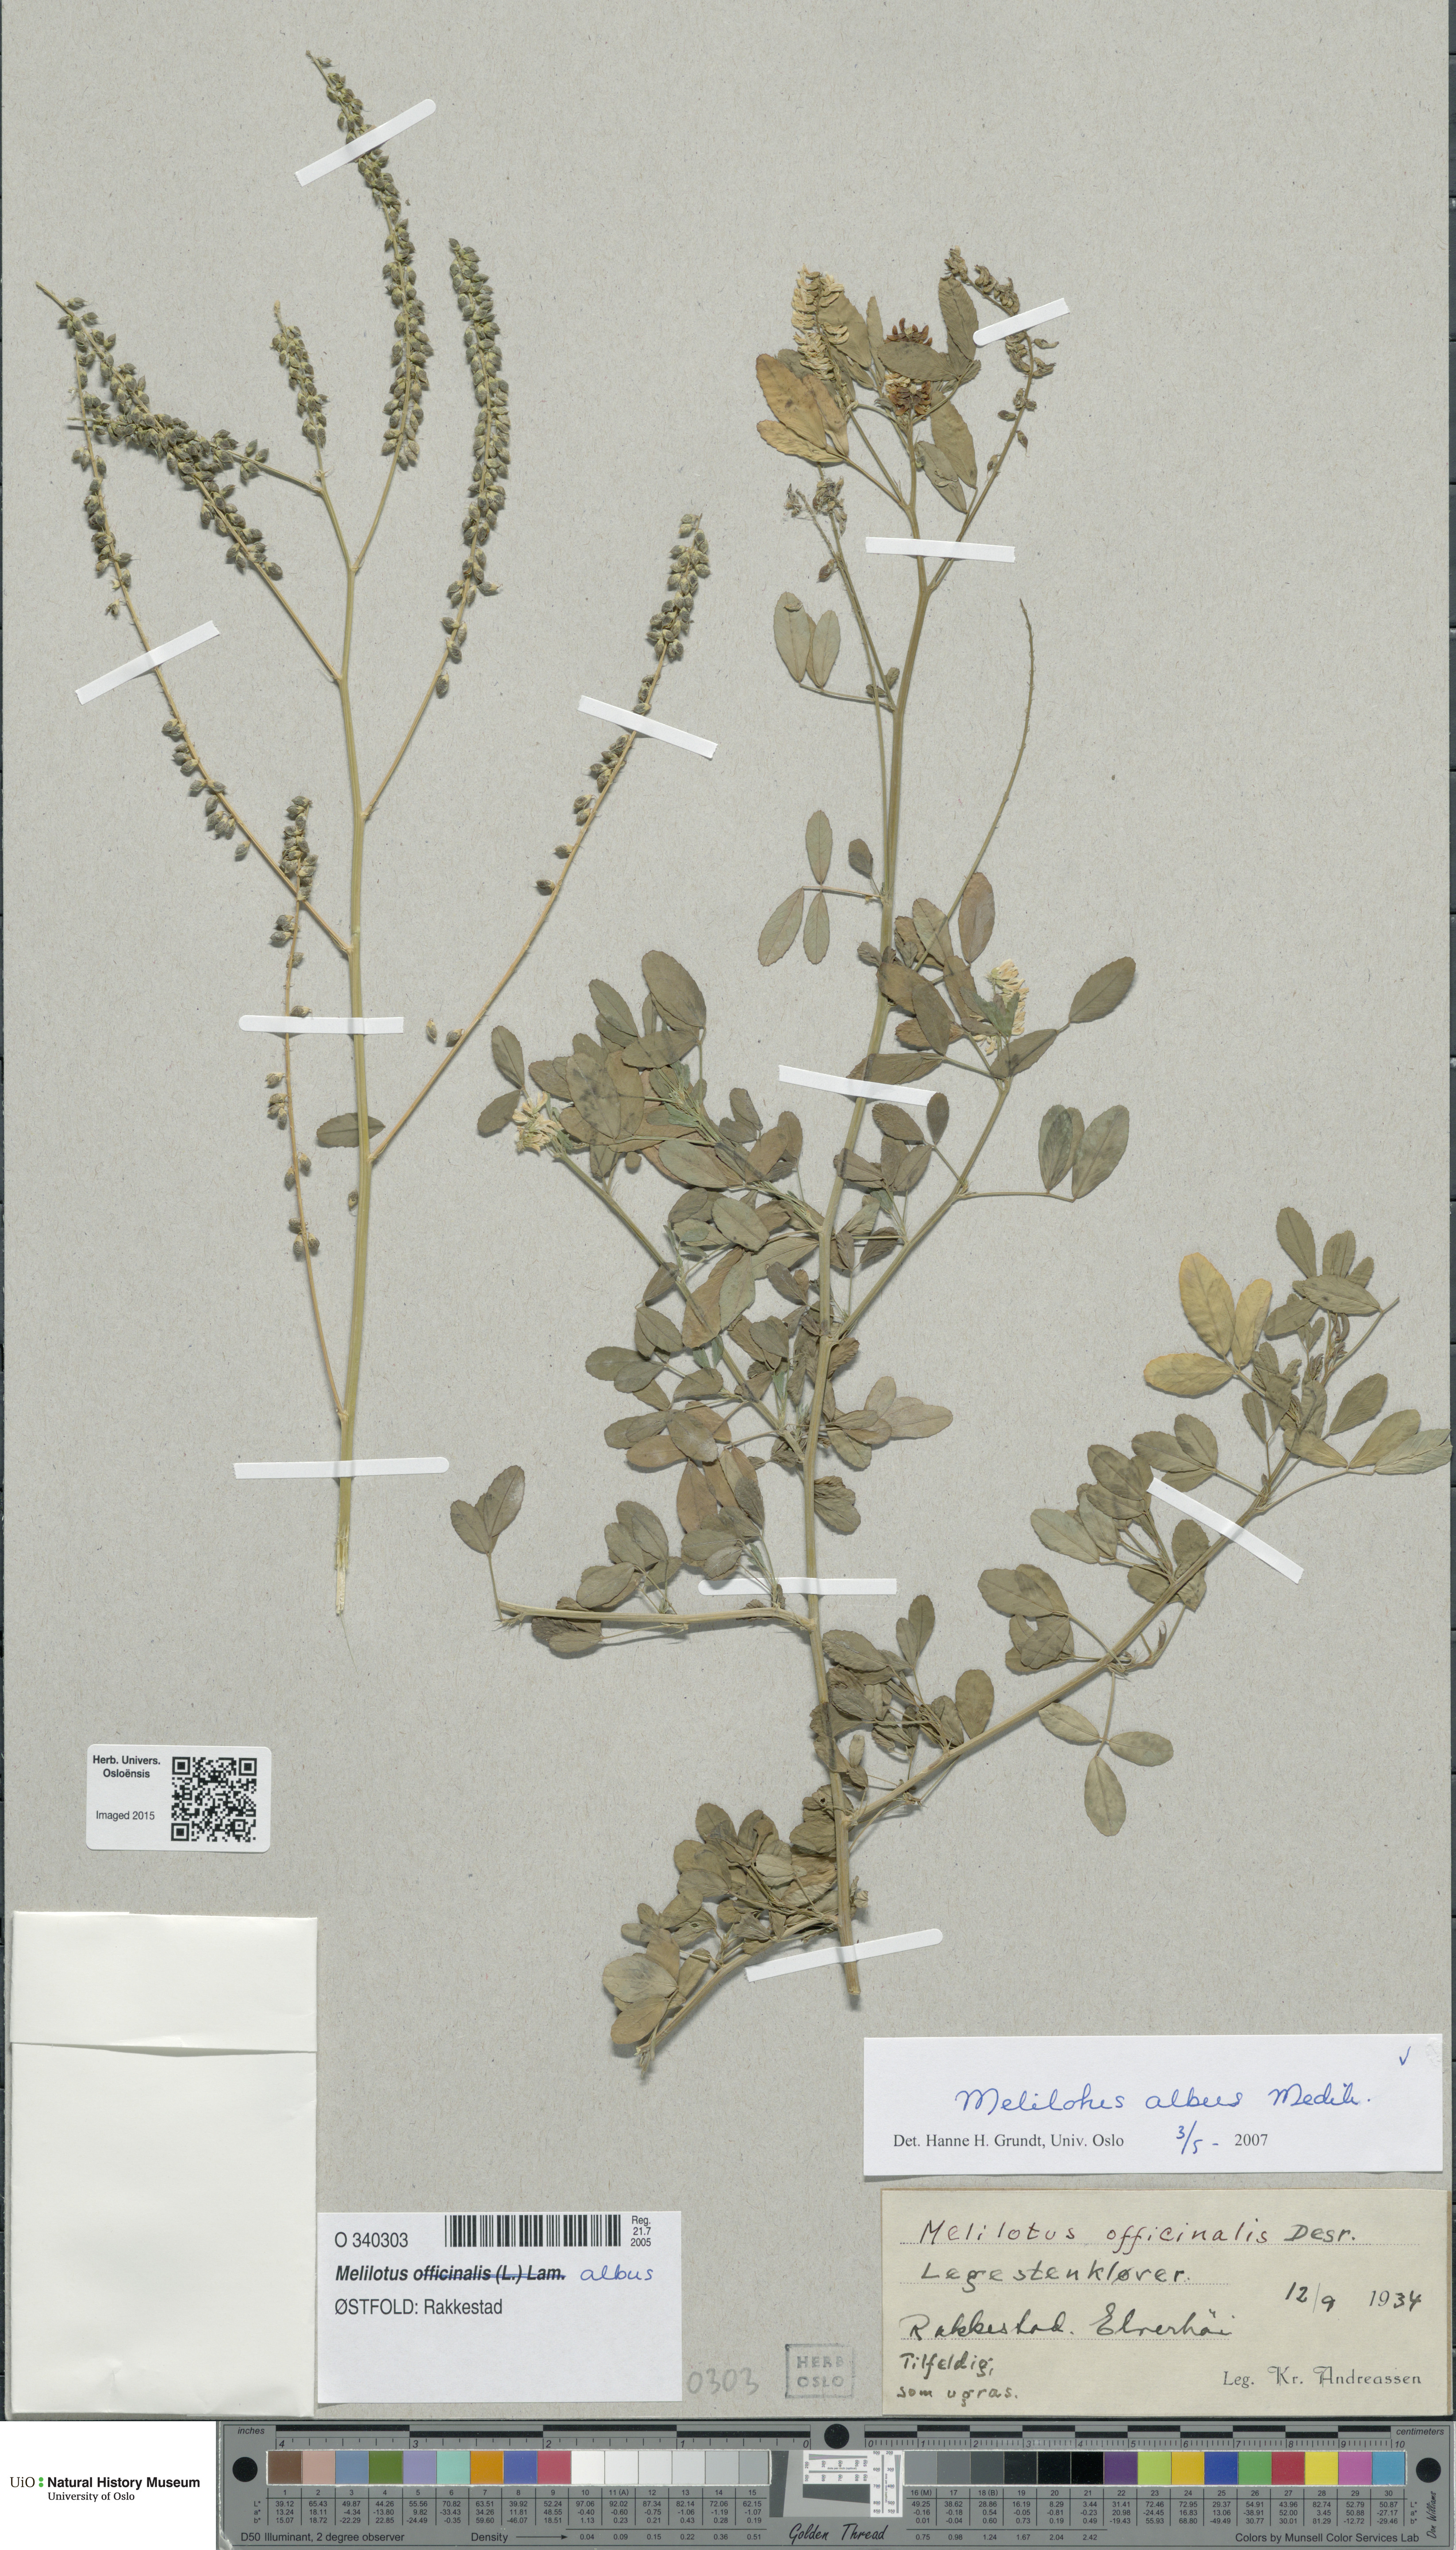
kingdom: Plantae
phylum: Tracheophyta
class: Magnoliopsida
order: Fabales
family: Fabaceae
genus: Melilotus
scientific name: Melilotus albus
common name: White melilot
